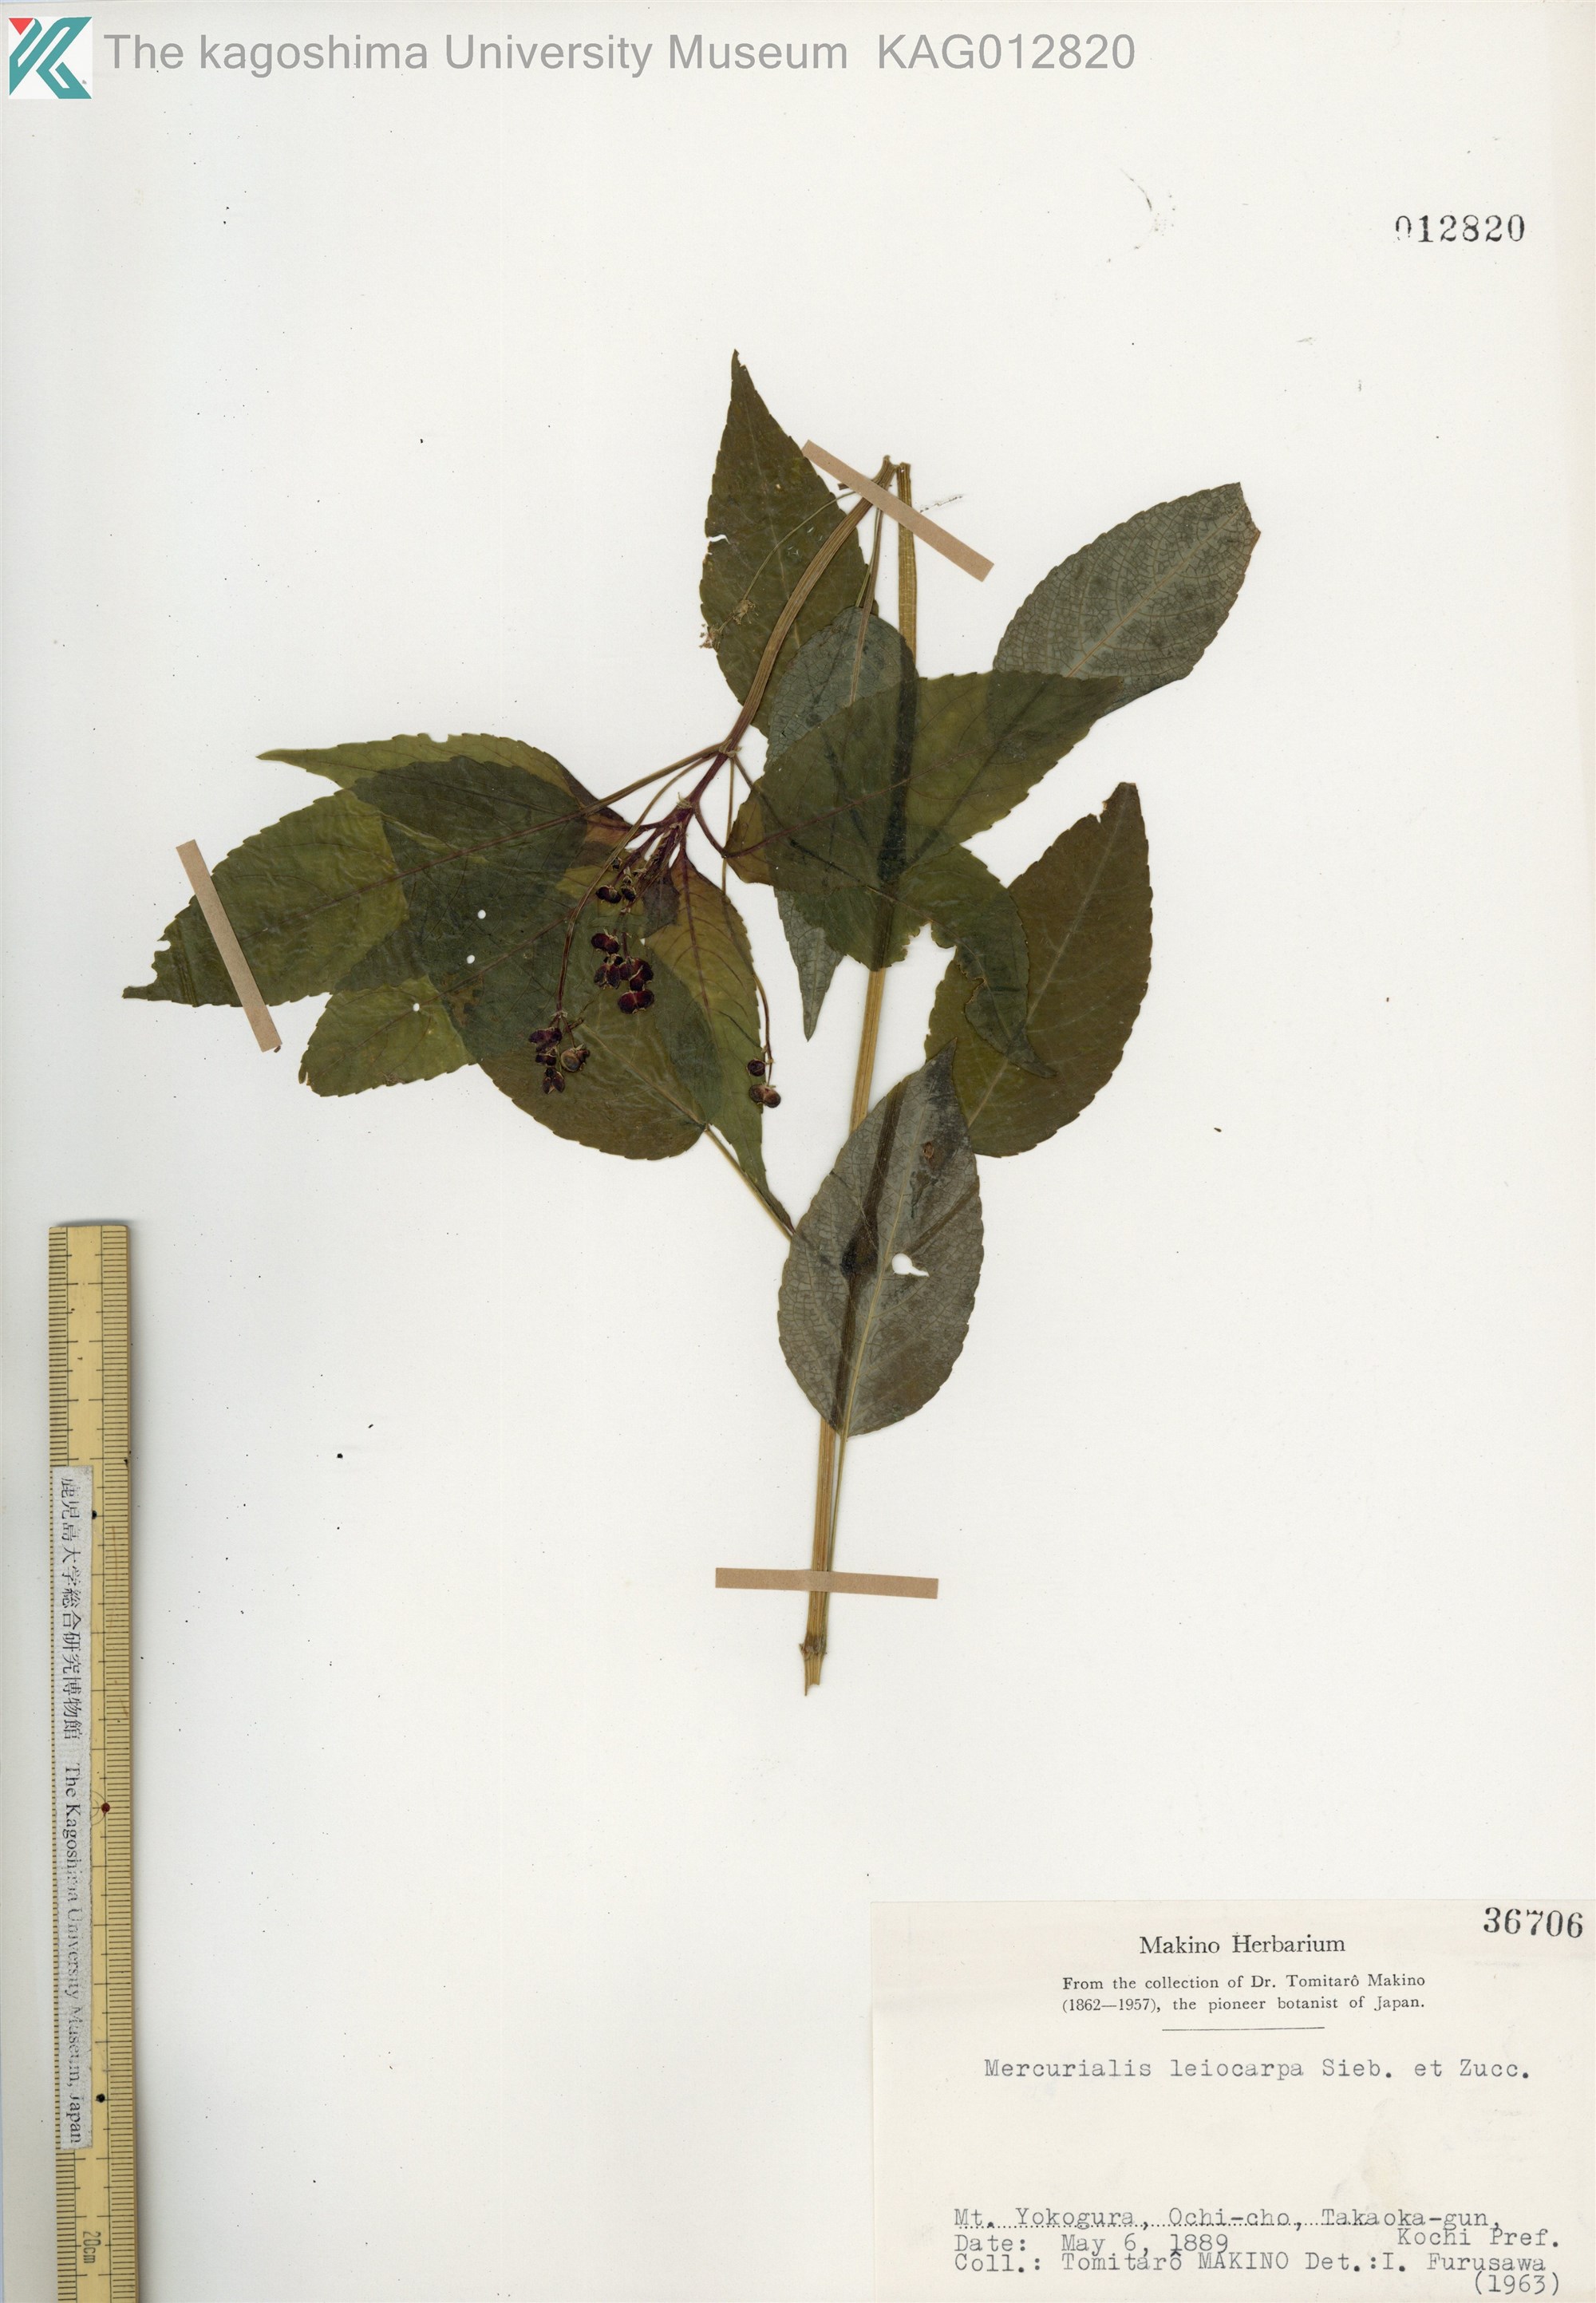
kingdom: Plantae
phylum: Tracheophyta
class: Magnoliopsida
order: Malpighiales
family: Euphorbiaceae
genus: Mercurialis
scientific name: Mercurialis leiocarpa
